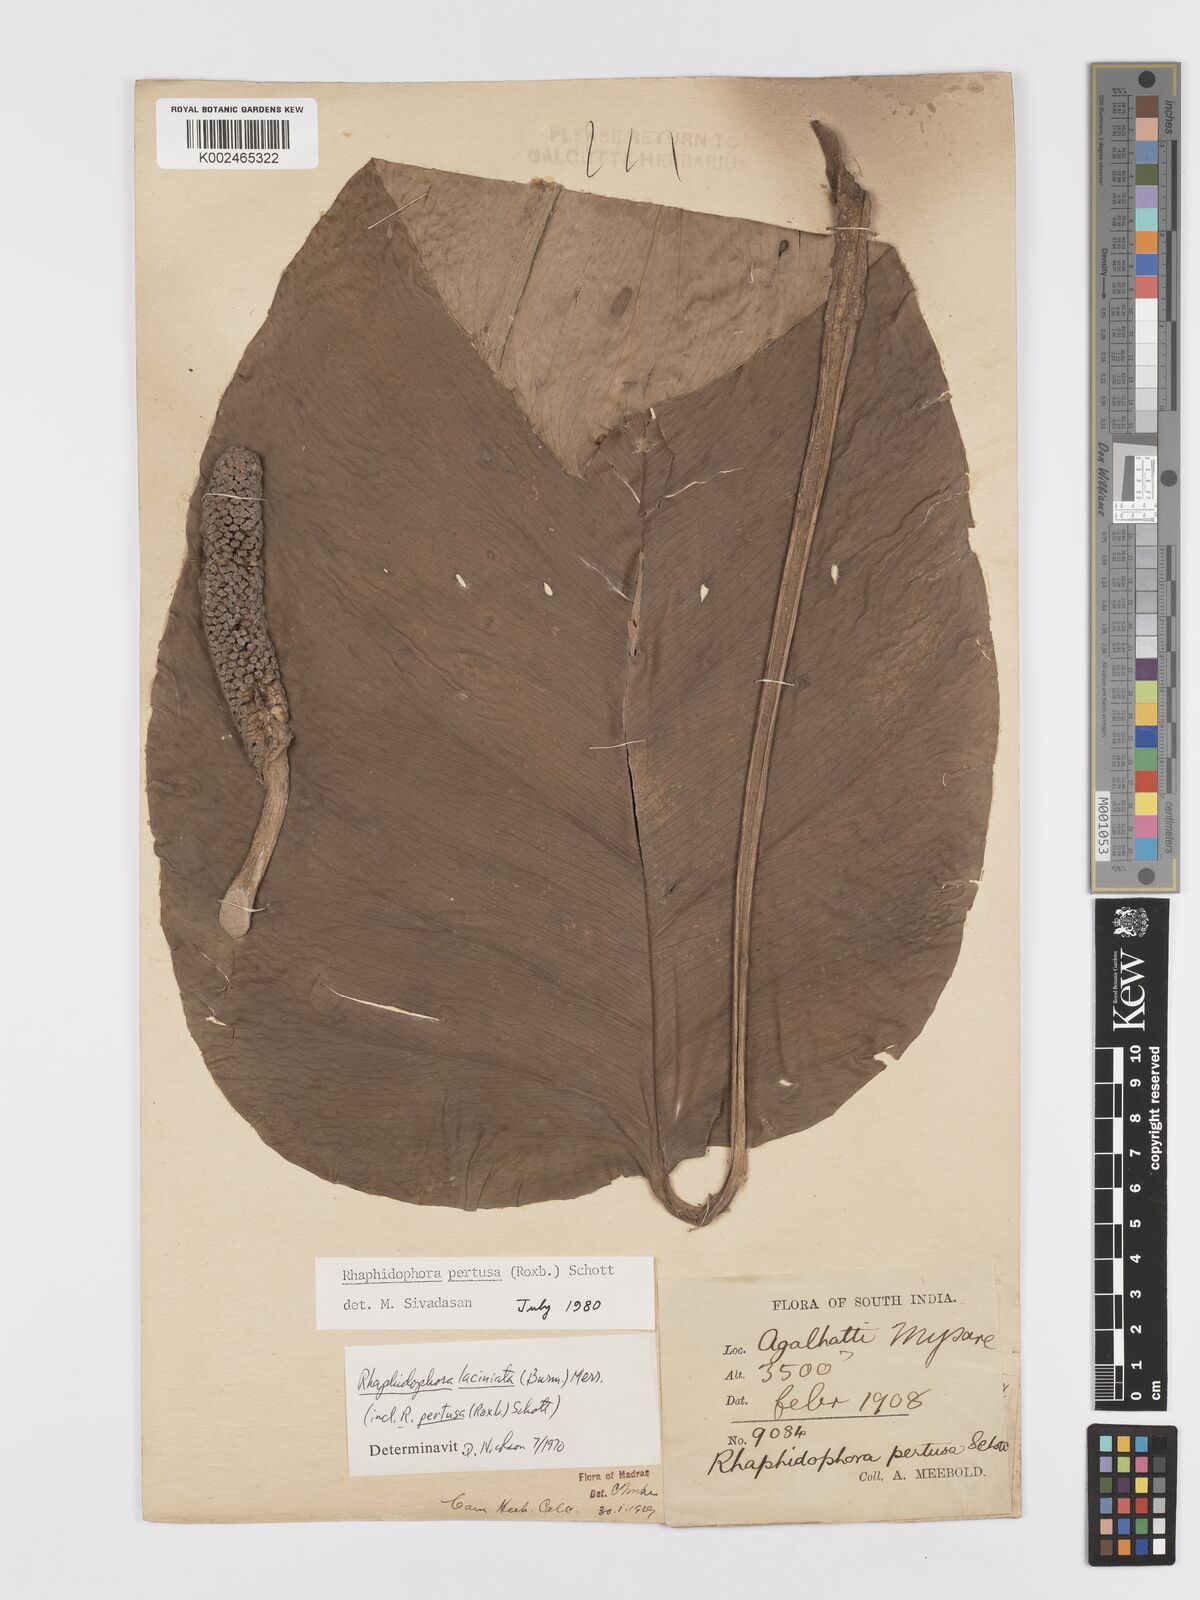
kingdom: Plantae
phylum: Tracheophyta
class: Liliopsida
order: Alismatales
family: Araceae
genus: Rhaphidophora
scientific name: Rhaphidophora pertusa
